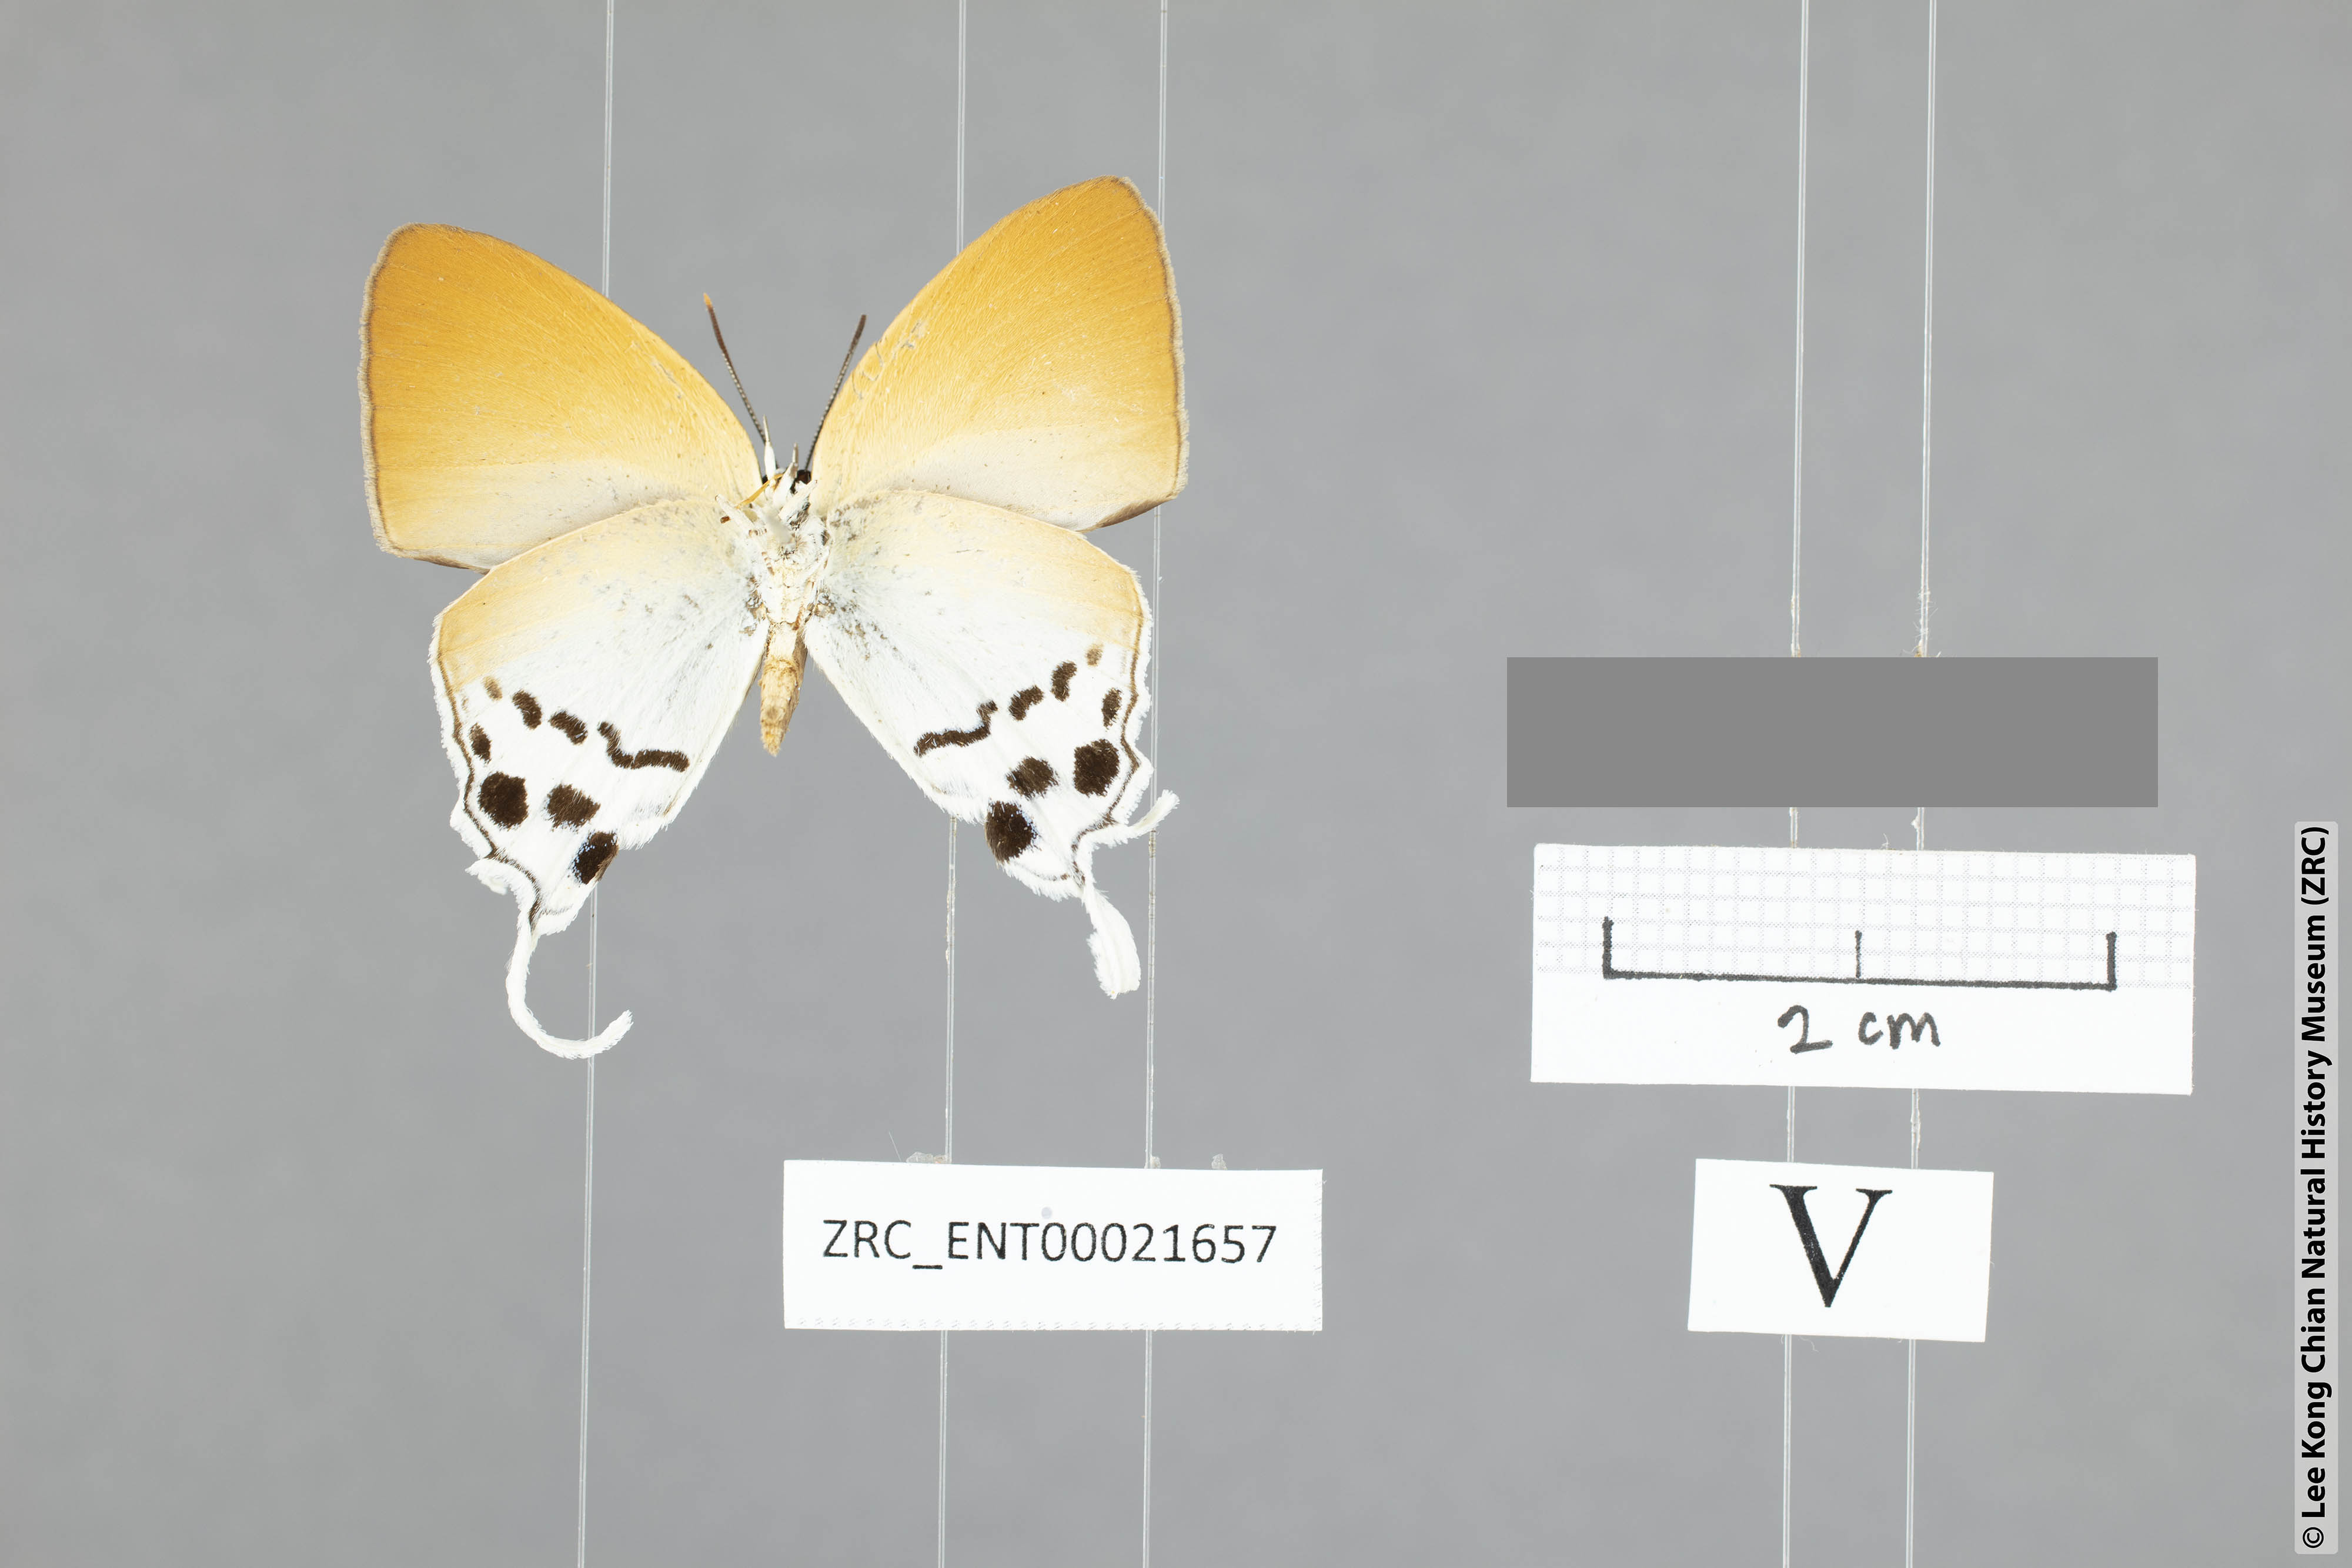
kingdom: Animalia
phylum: Arthropoda
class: Insecta
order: Lepidoptera
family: Lycaenidae
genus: Thrix
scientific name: Thrix
